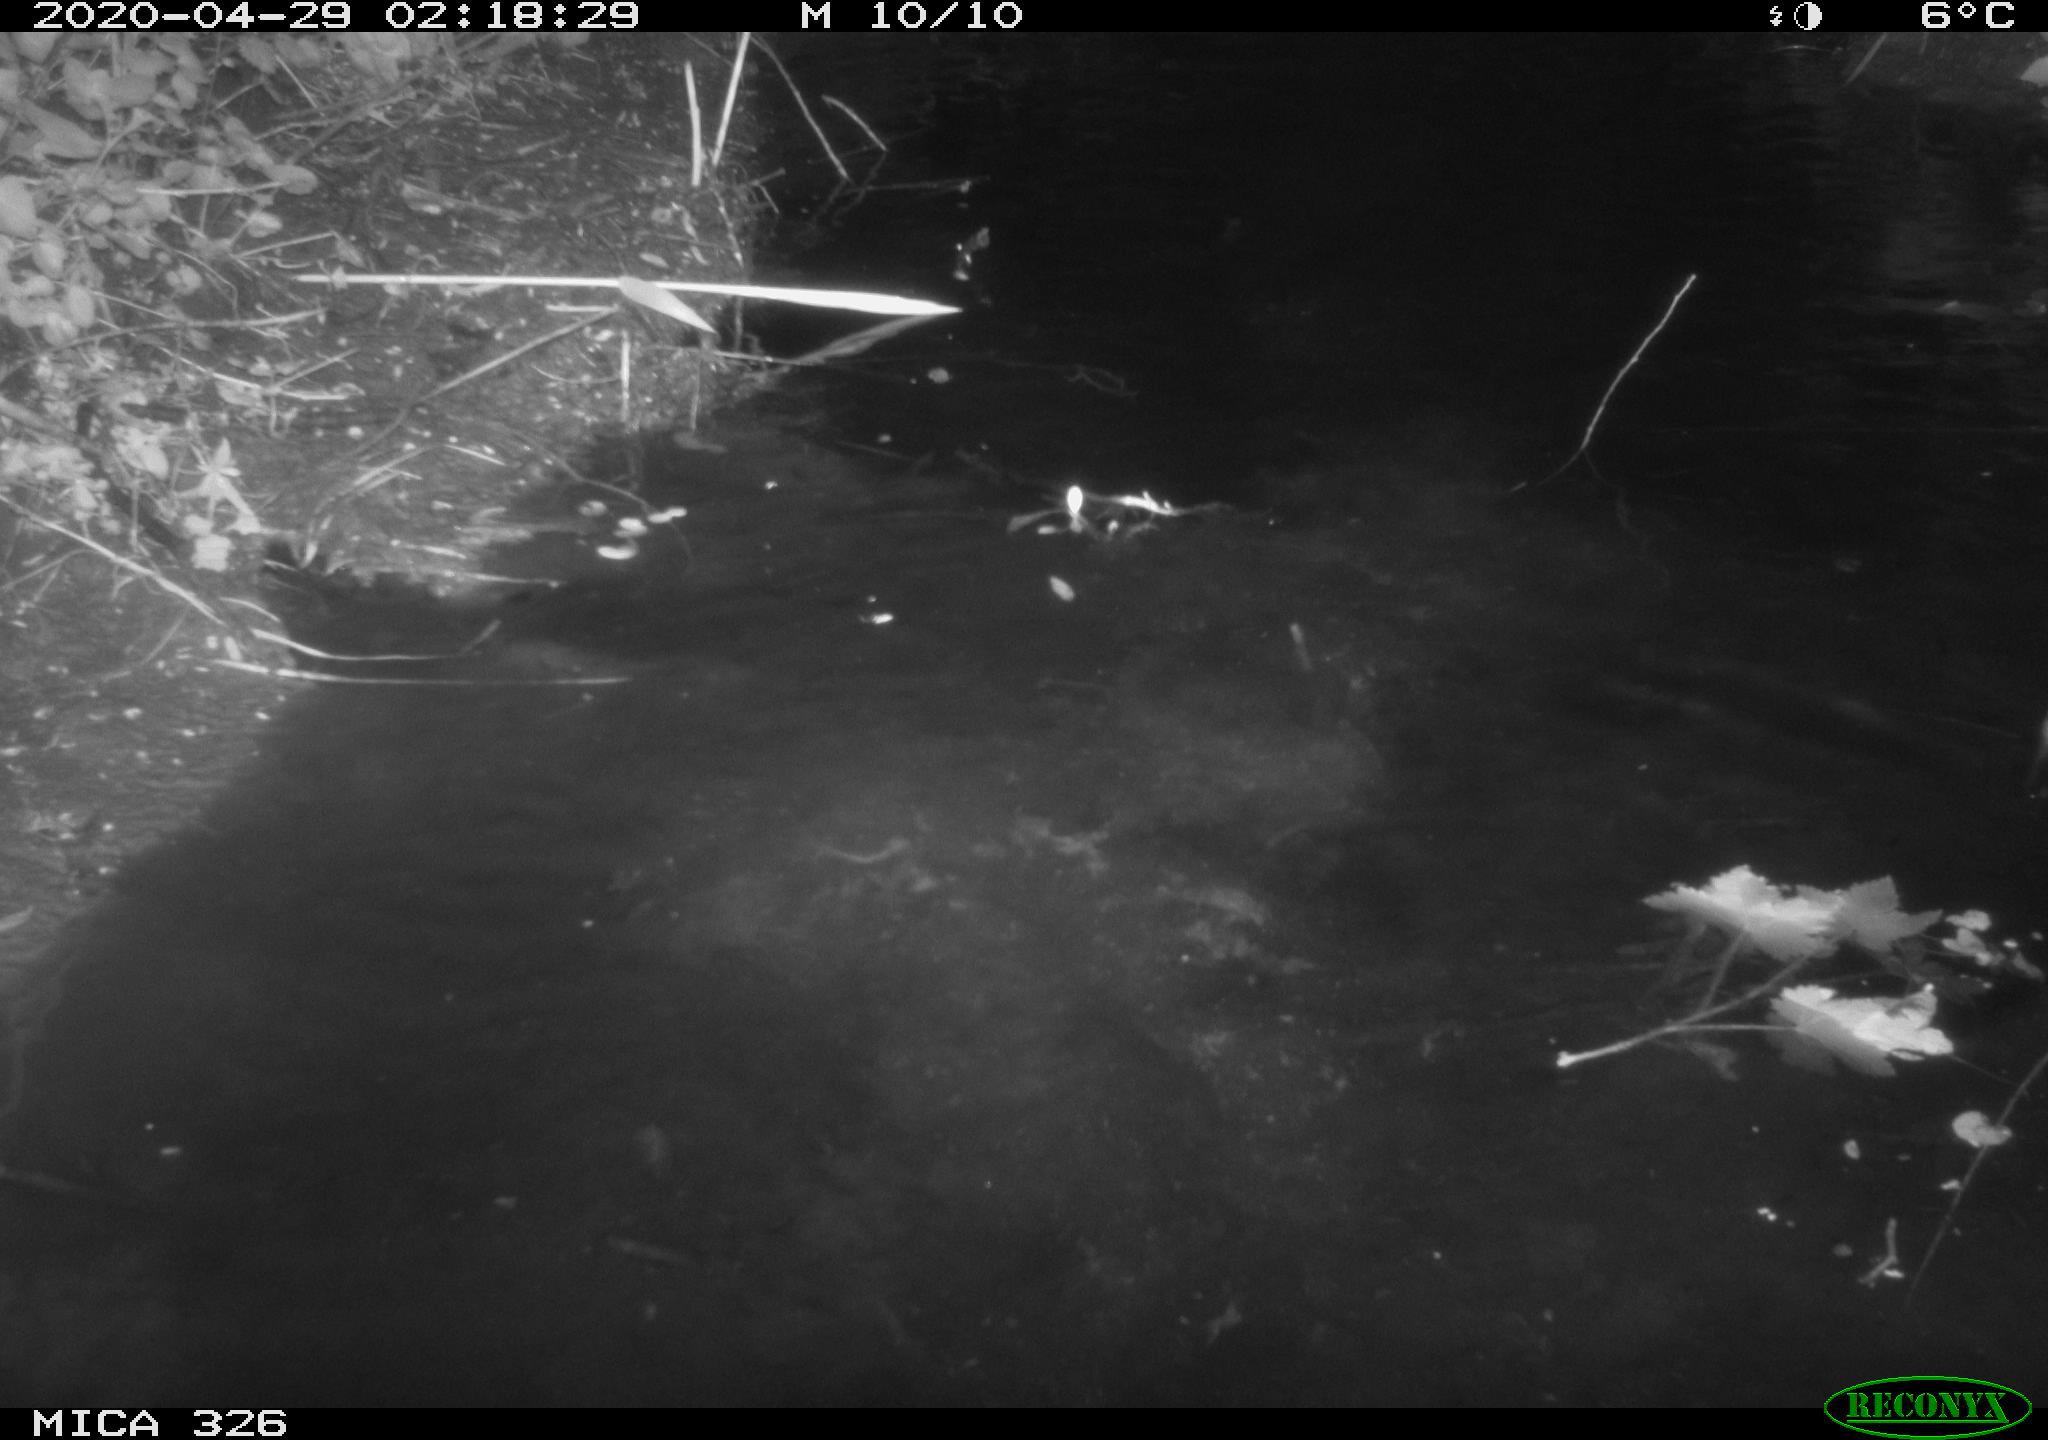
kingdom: Animalia
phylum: Chordata
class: Mammalia
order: Rodentia
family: Cricetidae
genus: Ondatra
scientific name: Ondatra zibethicus
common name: Muskrat
